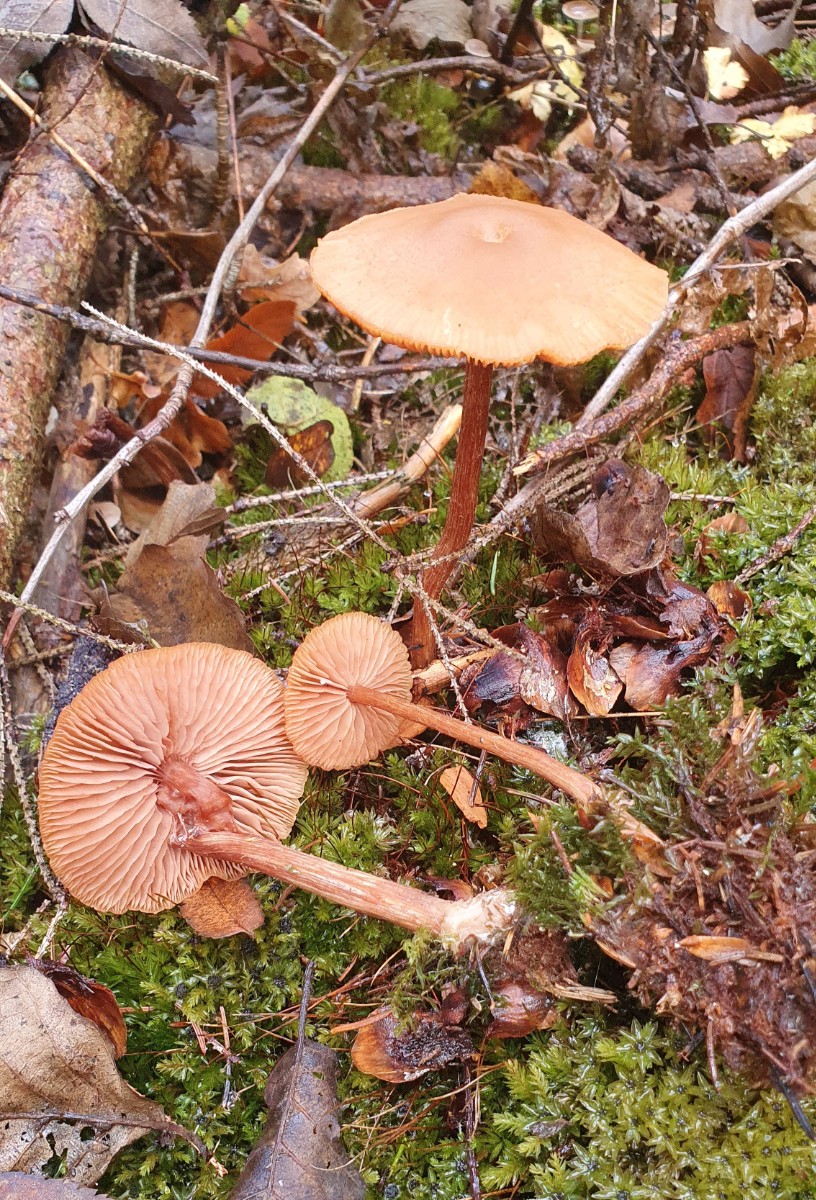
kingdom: Fungi
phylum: Basidiomycota
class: Agaricomycetes
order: Agaricales
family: Hydnangiaceae
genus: Laccaria
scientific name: Laccaria proxima
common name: stor ametysthat
